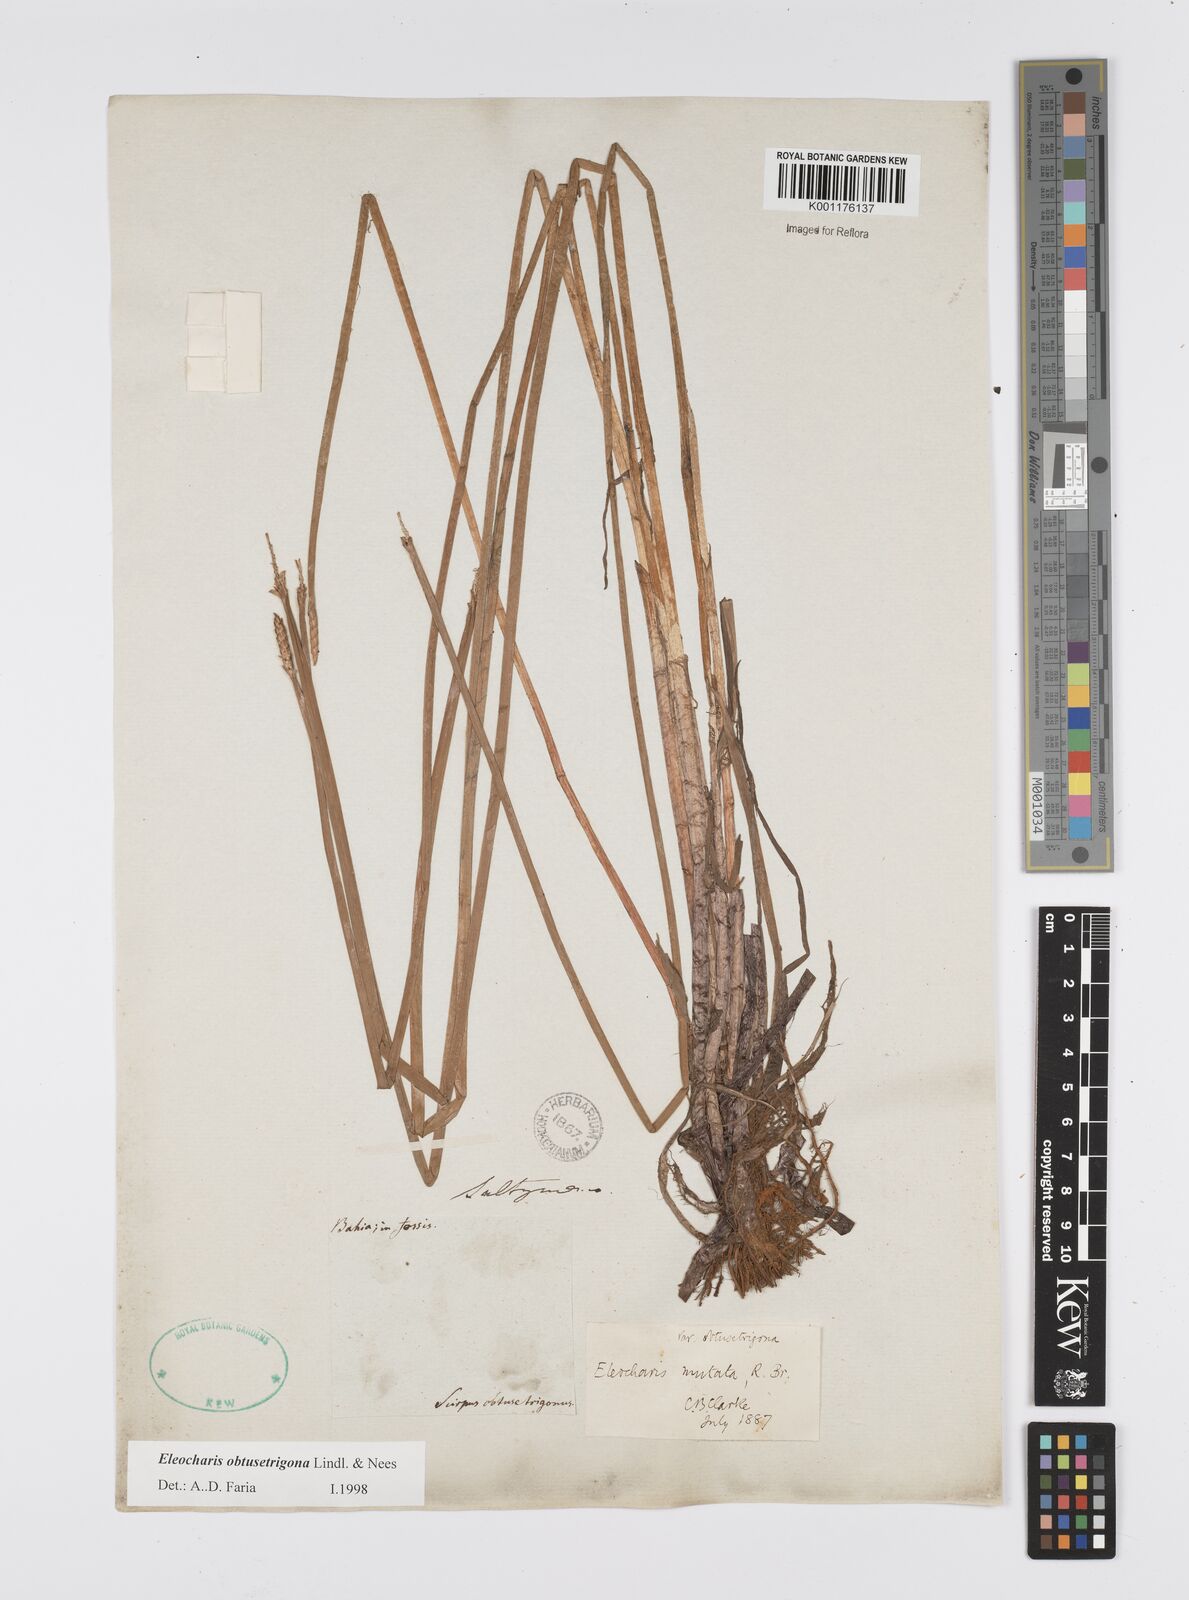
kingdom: Plantae
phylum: Tracheophyta
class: Liliopsida
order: Poales
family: Cyperaceae
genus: Eleocharis
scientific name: Eleocharis acutangula
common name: Acute spikerush
